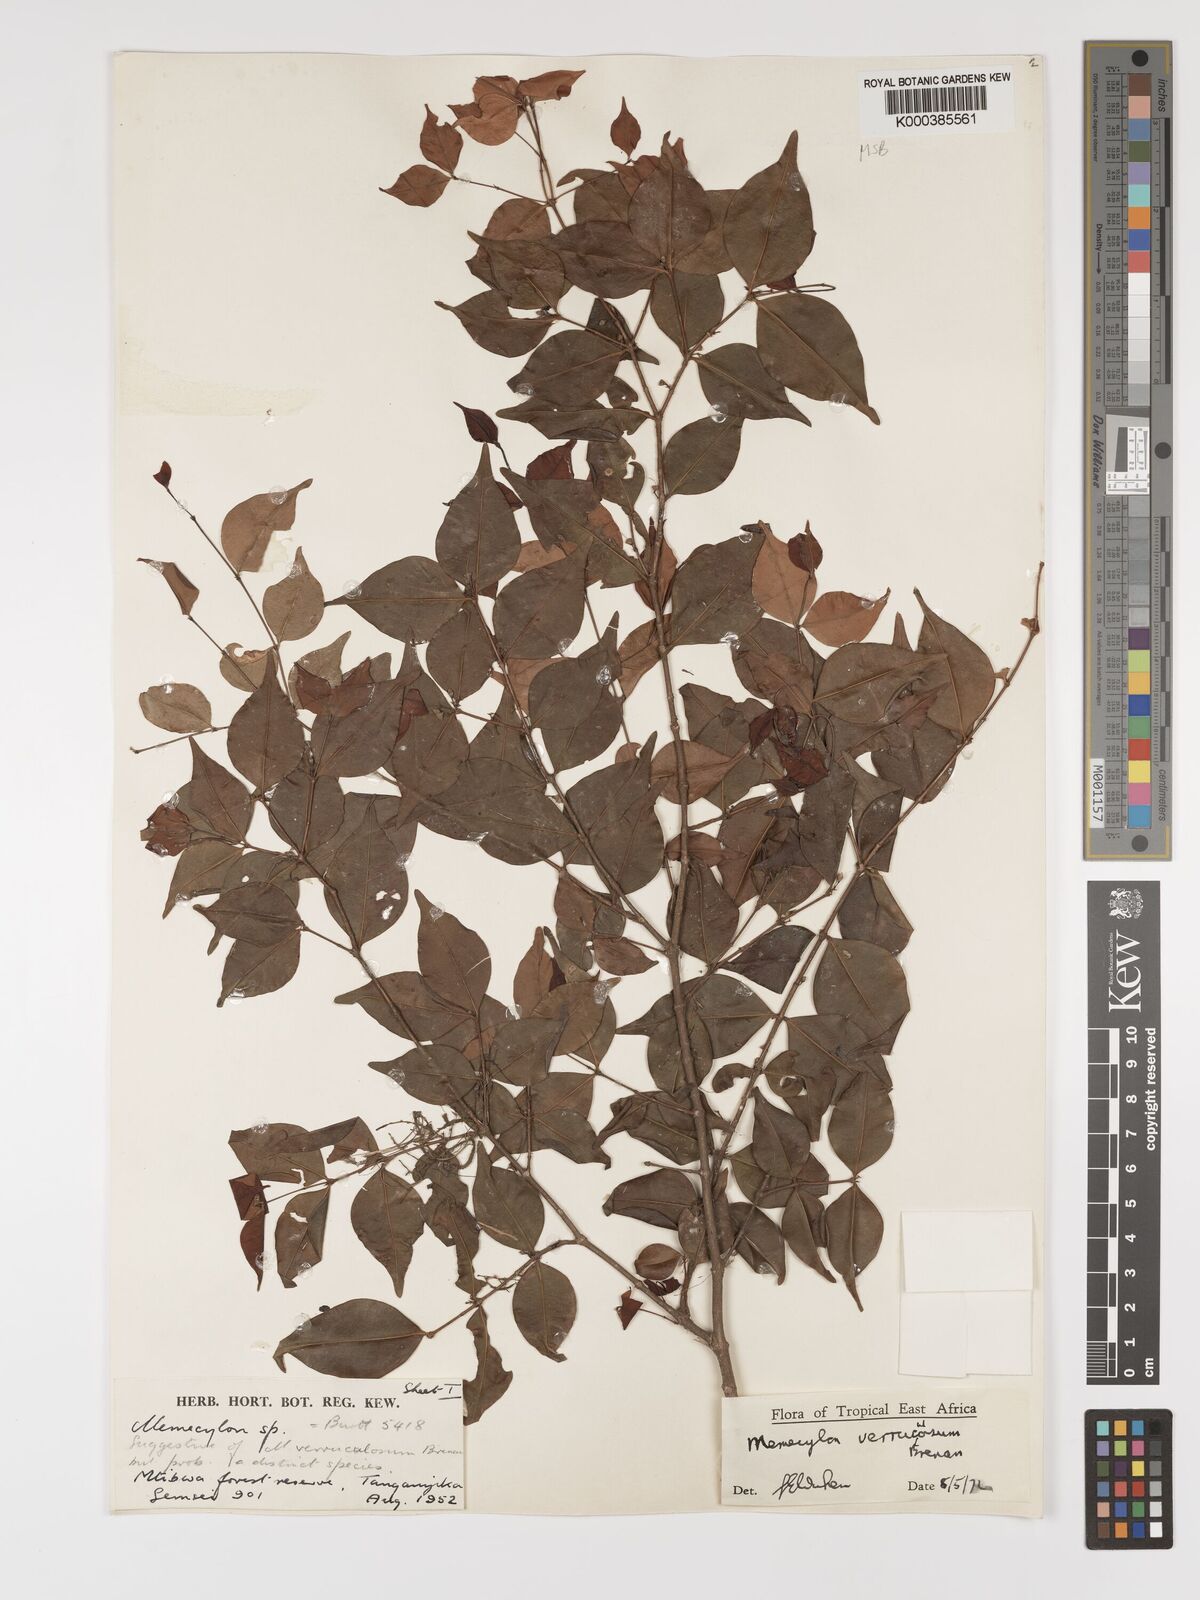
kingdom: Plantae
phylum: Tracheophyta
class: Magnoliopsida
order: Myrtales
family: Melastomataceae
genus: Memecylon
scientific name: Memecylon verruculosum
